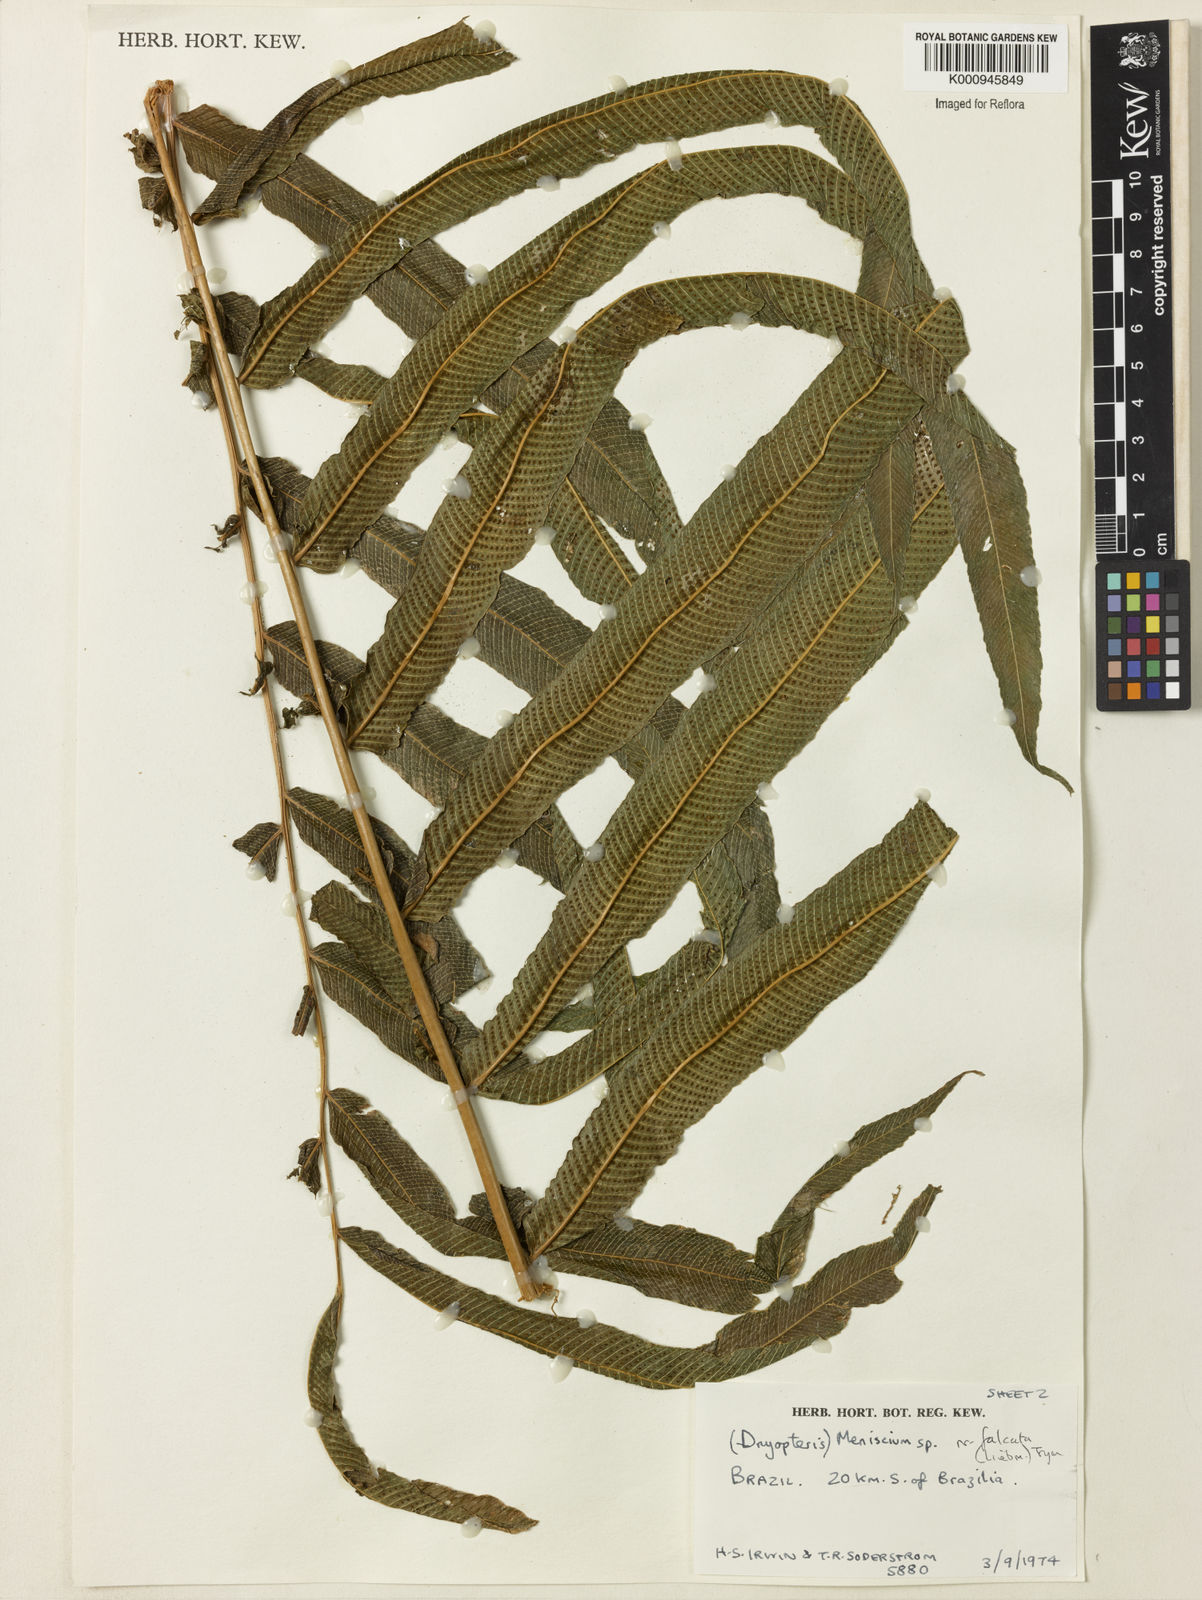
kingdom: Plantae
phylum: Tracheophyta
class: Polypodiopsida
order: Polypodiales
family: Thelypteridaceae
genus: Meniscium
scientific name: Meniscium longifolium
